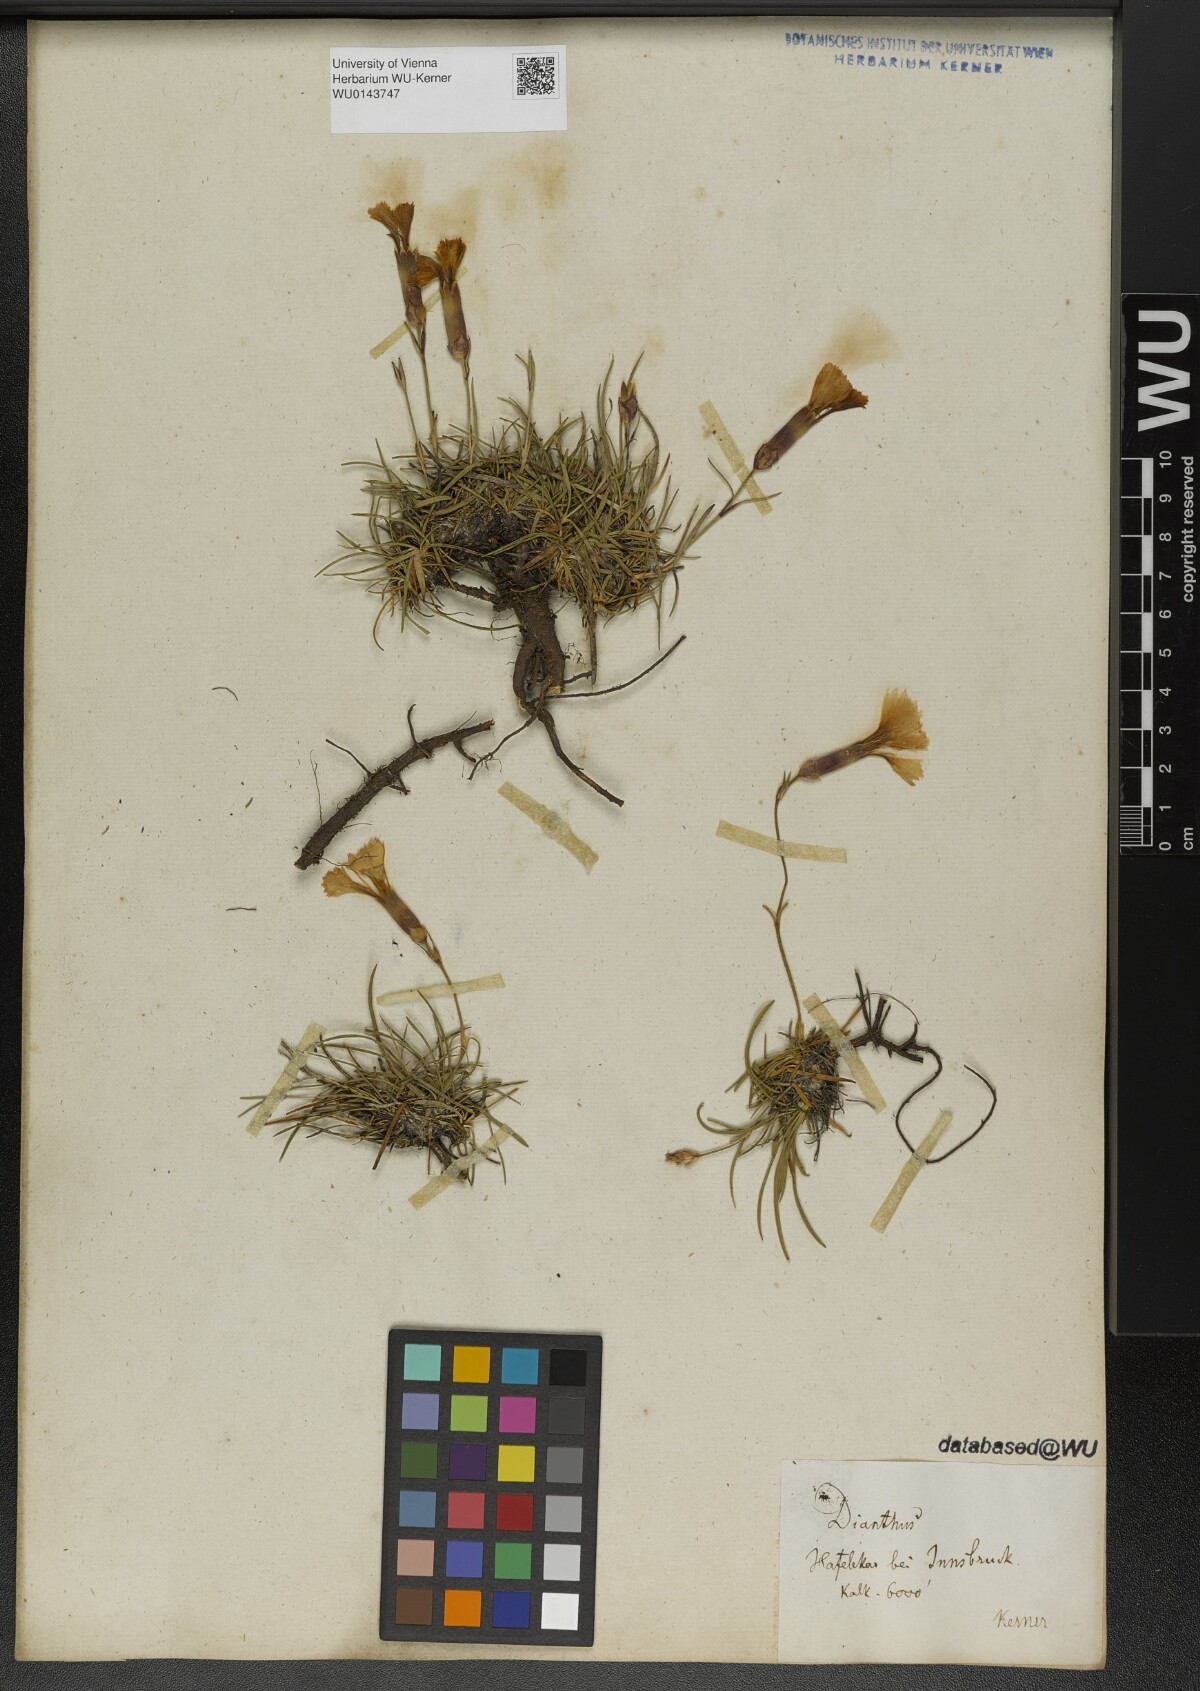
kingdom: Plantae
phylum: Tracheophyta
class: Magnoliopsida
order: Caryophyllales
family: Caryophyllaceae
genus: Dianthus
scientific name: Dianthus sylvestris
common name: Wood pink
